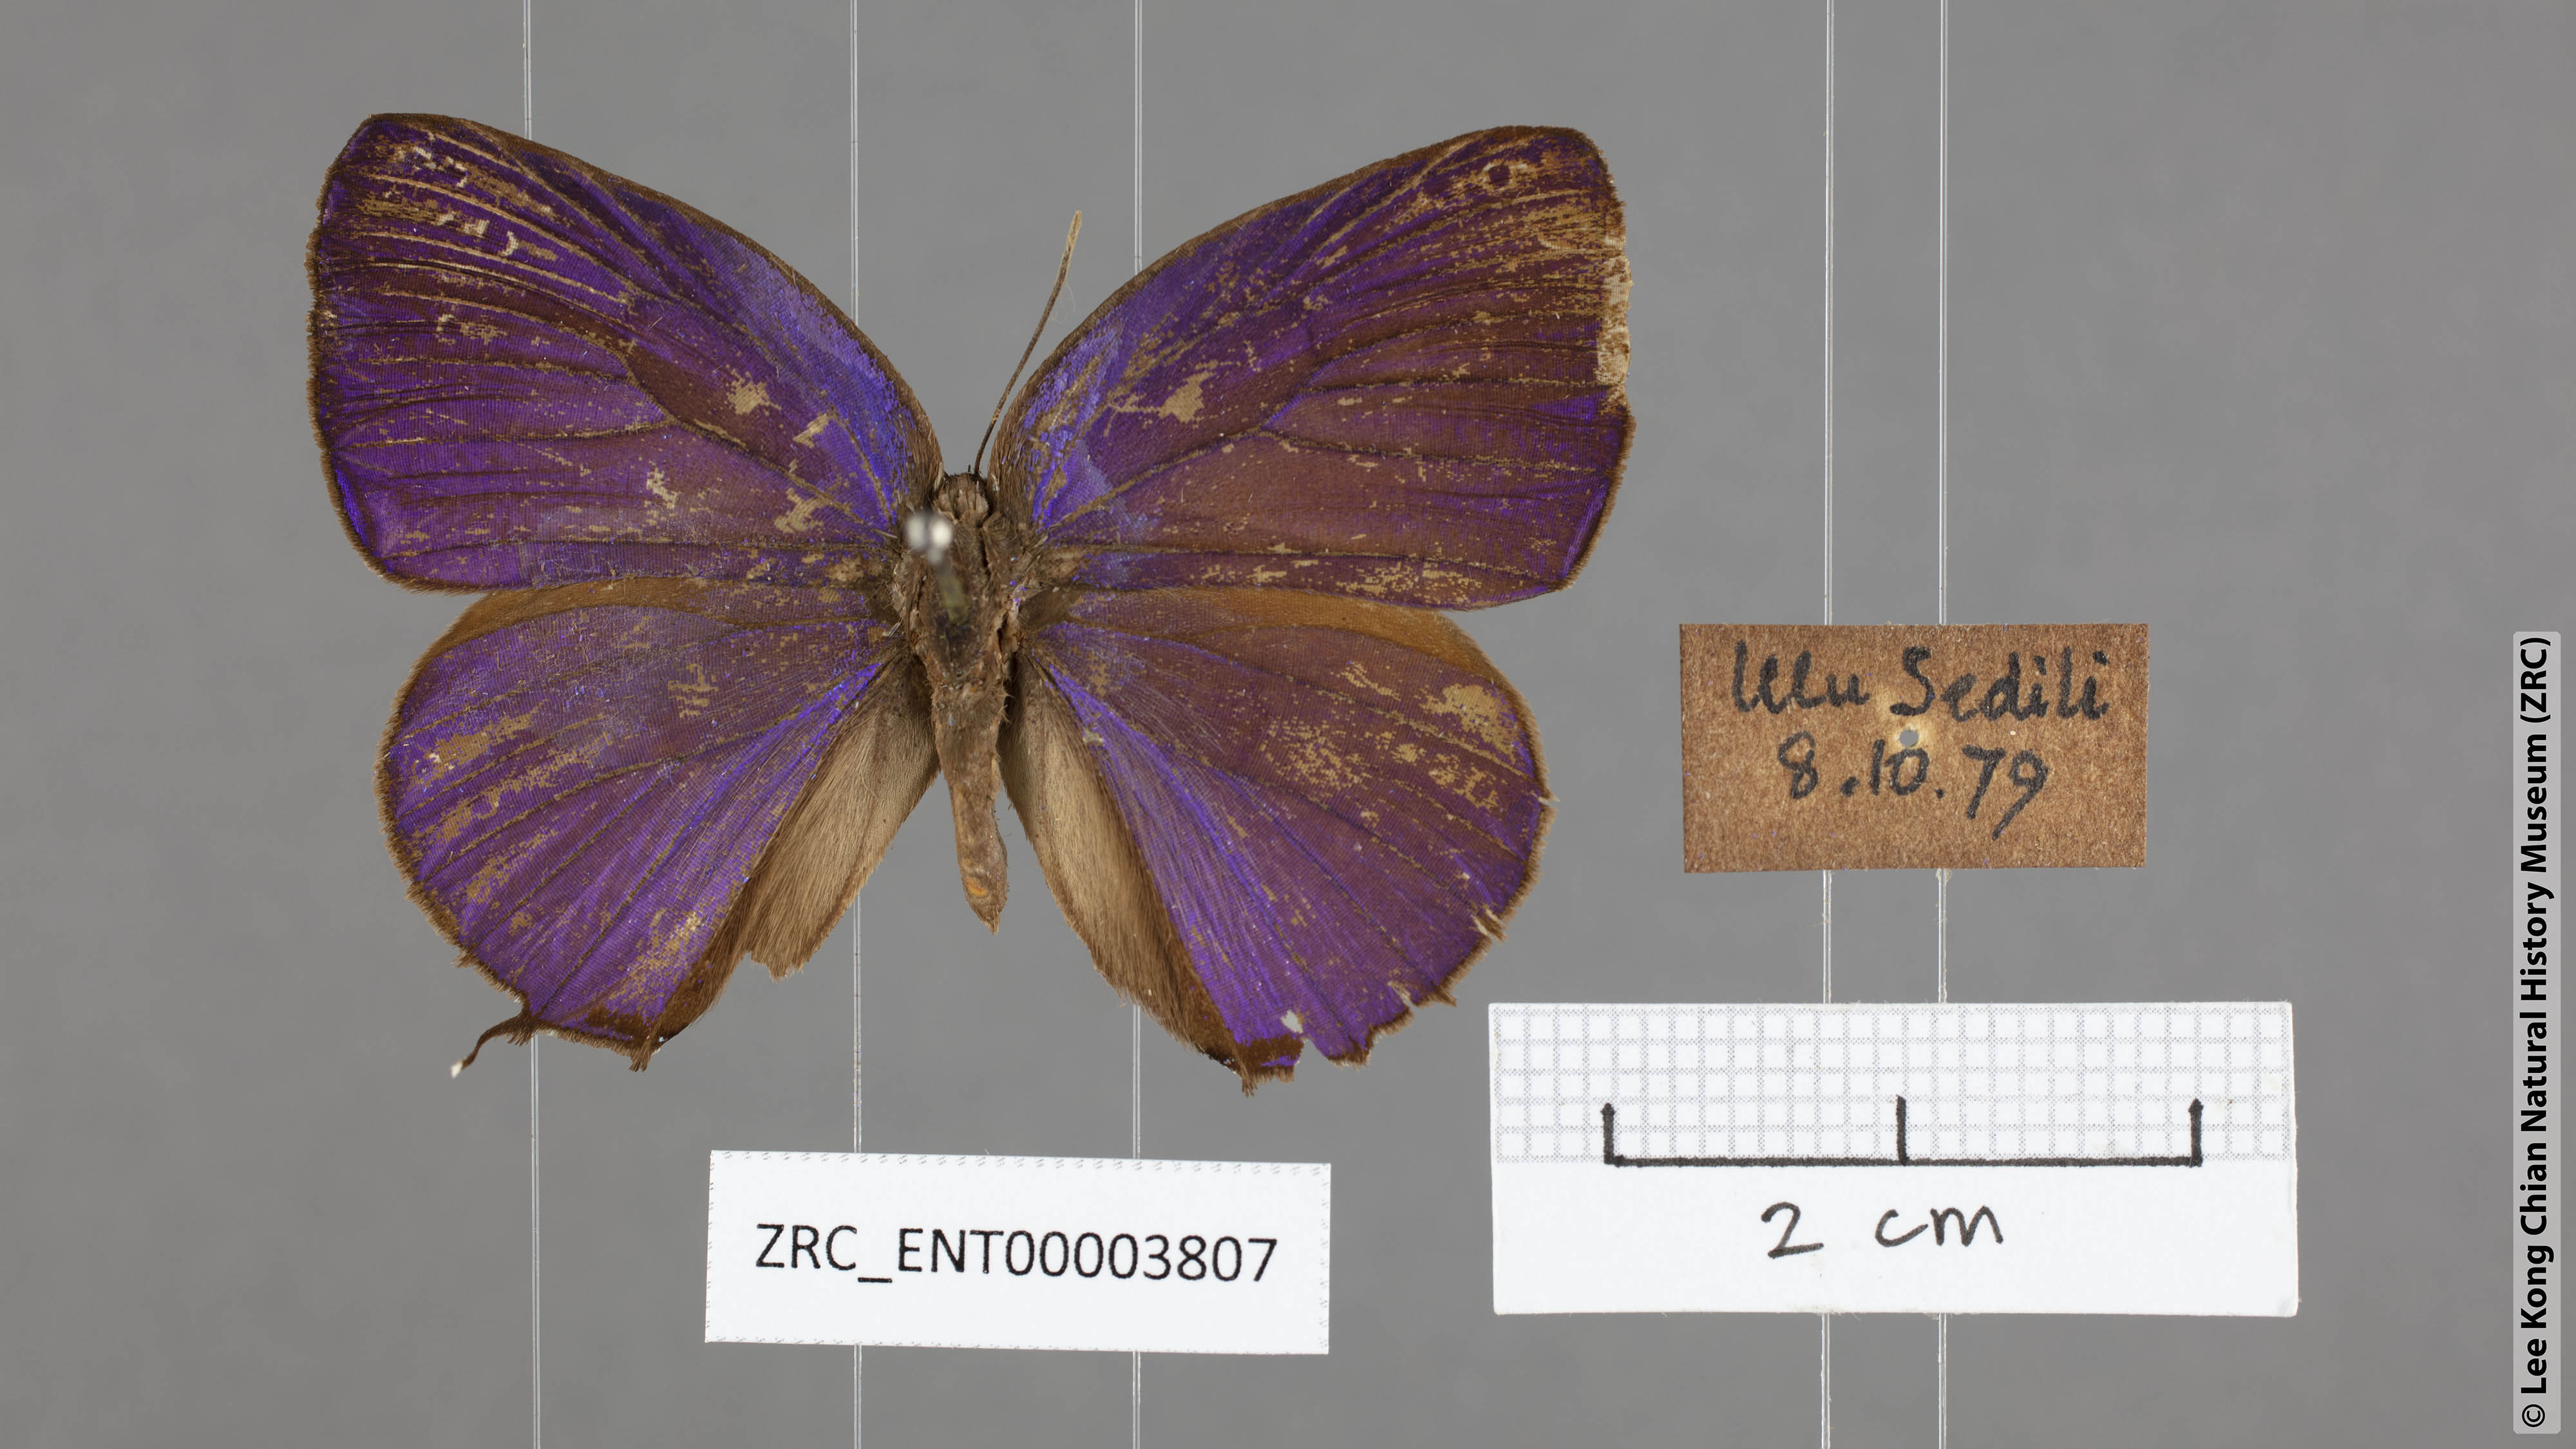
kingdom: Animalia
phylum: Arthropoda
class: Insecta
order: Lepidoptera
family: Lycaenidae
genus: Arhopala
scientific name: Arhopala aedias
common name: Large metallic oakblue
